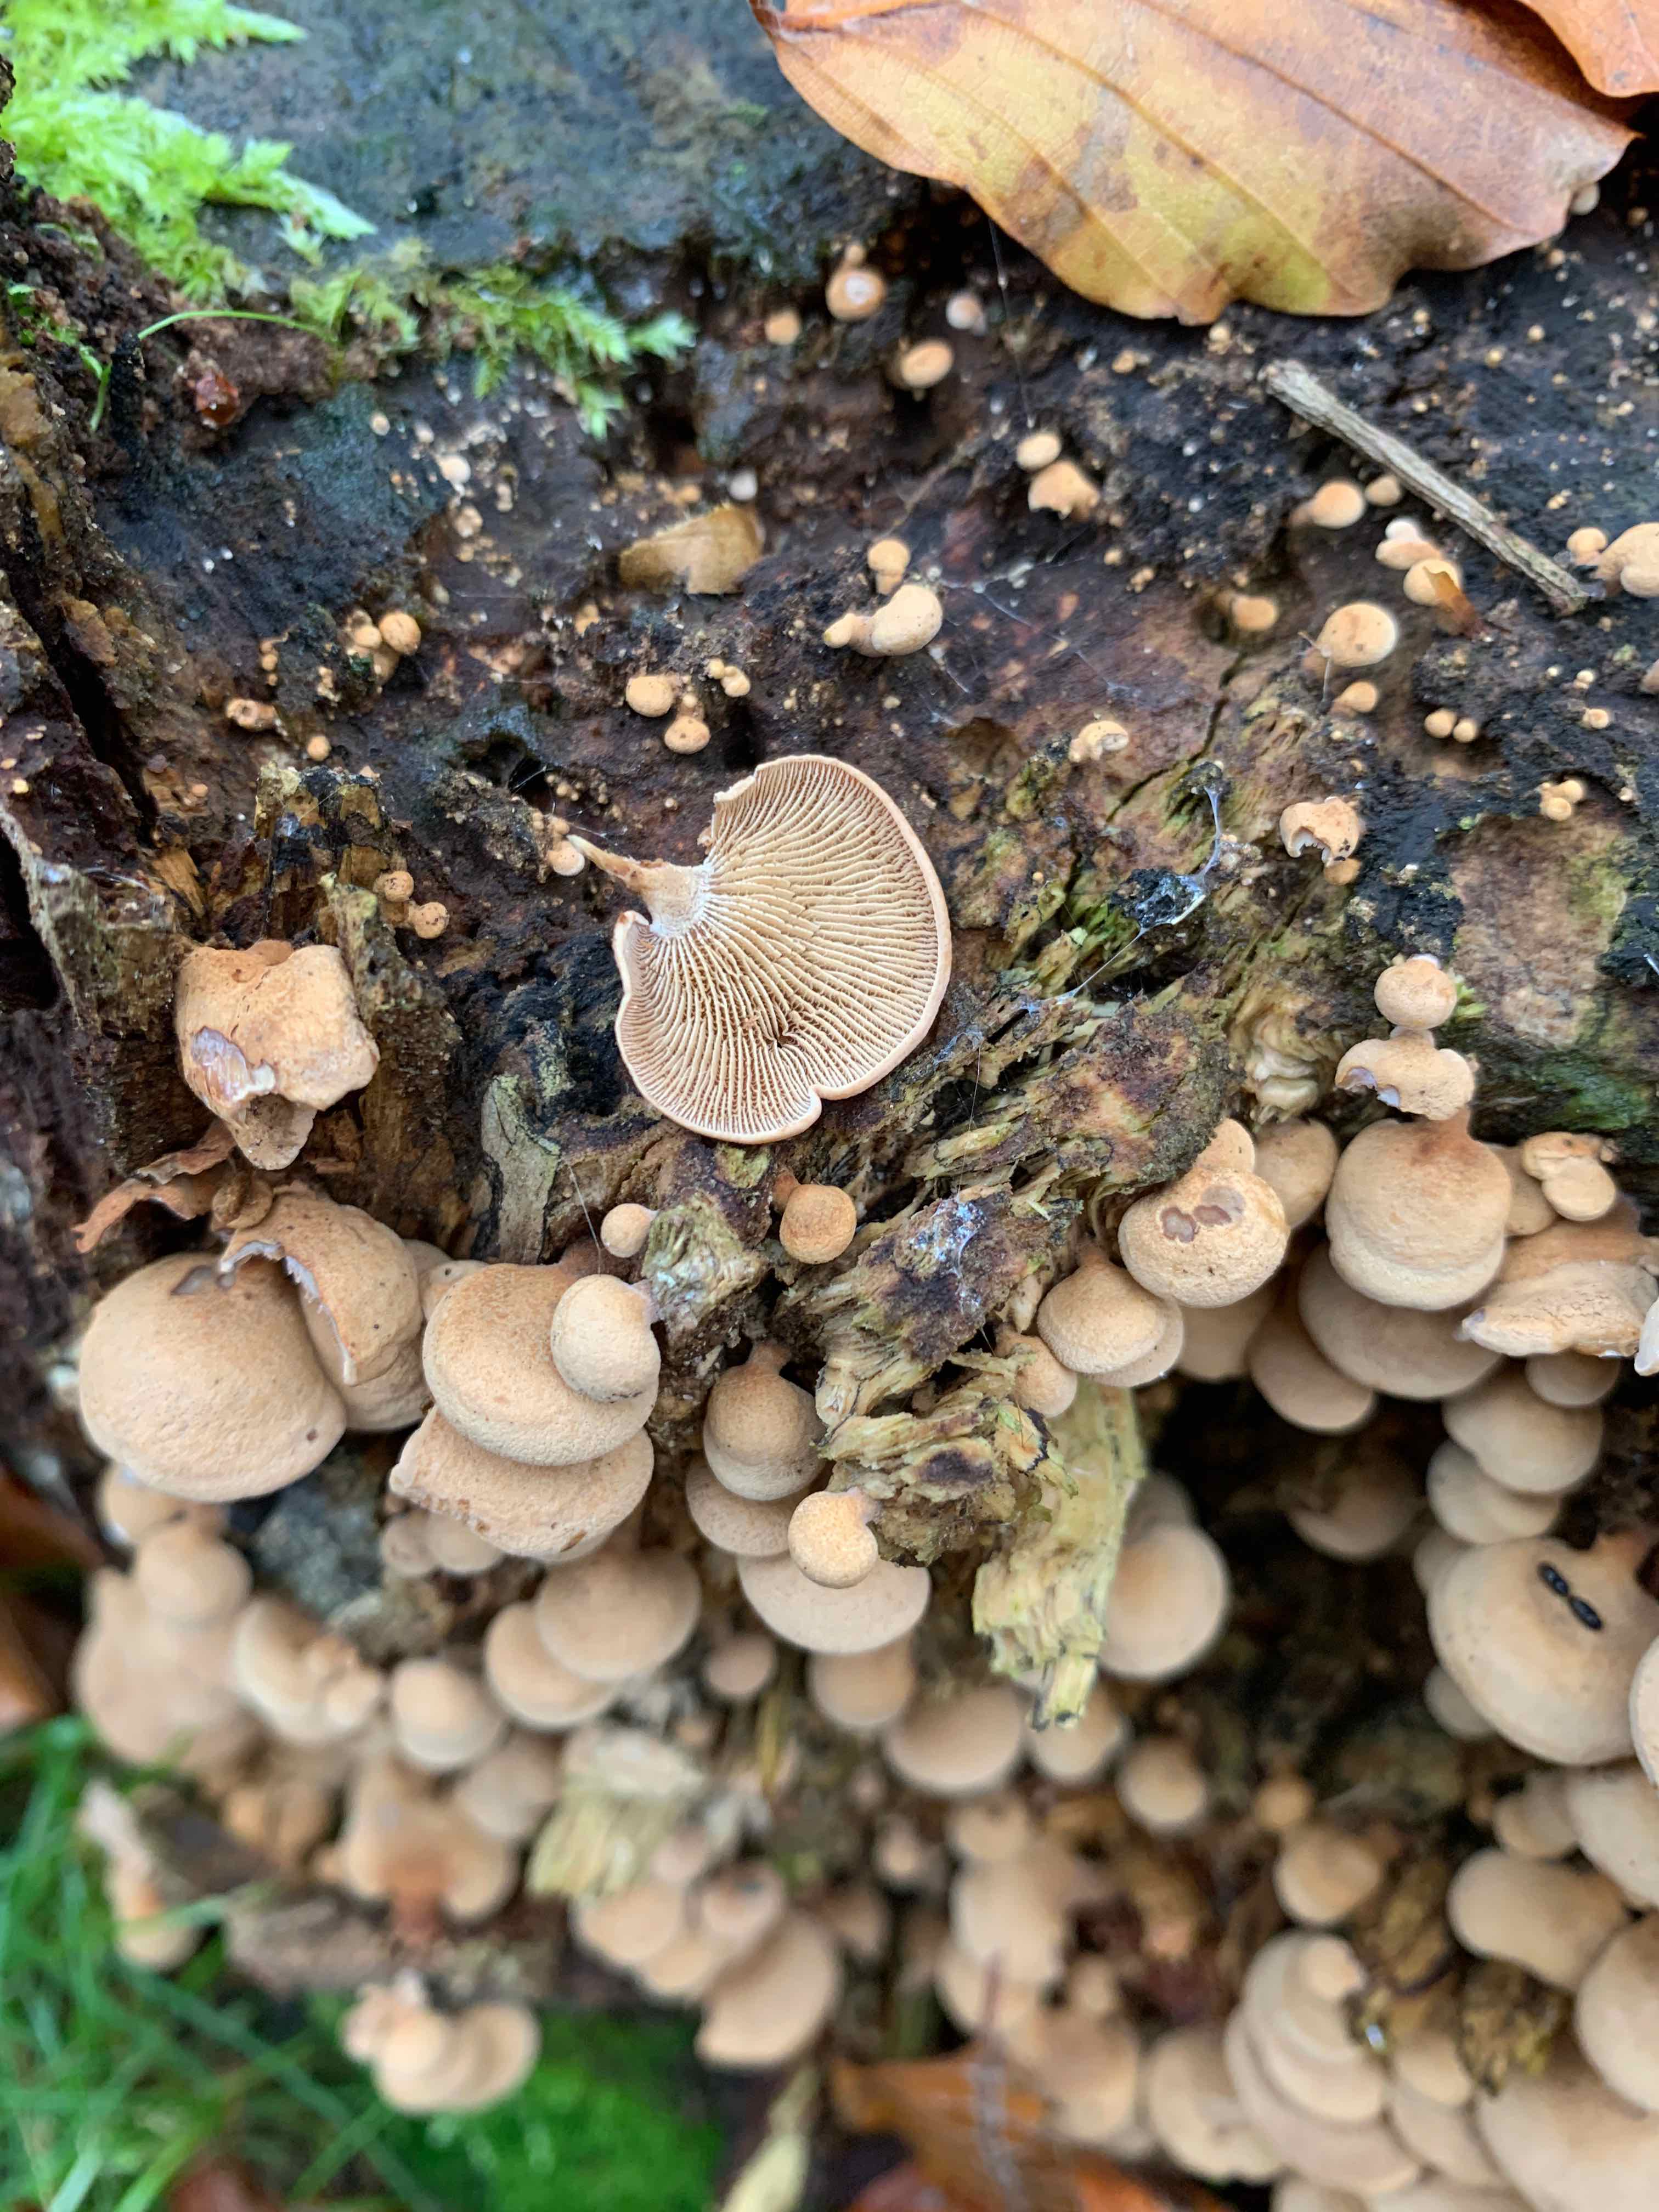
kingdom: Fungi
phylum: Basidiomycota
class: Agaricomycetes
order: Agaricales
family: Mycenaceae
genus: Panellus
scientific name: Panellus stipticus
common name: kliddet epaulethat
